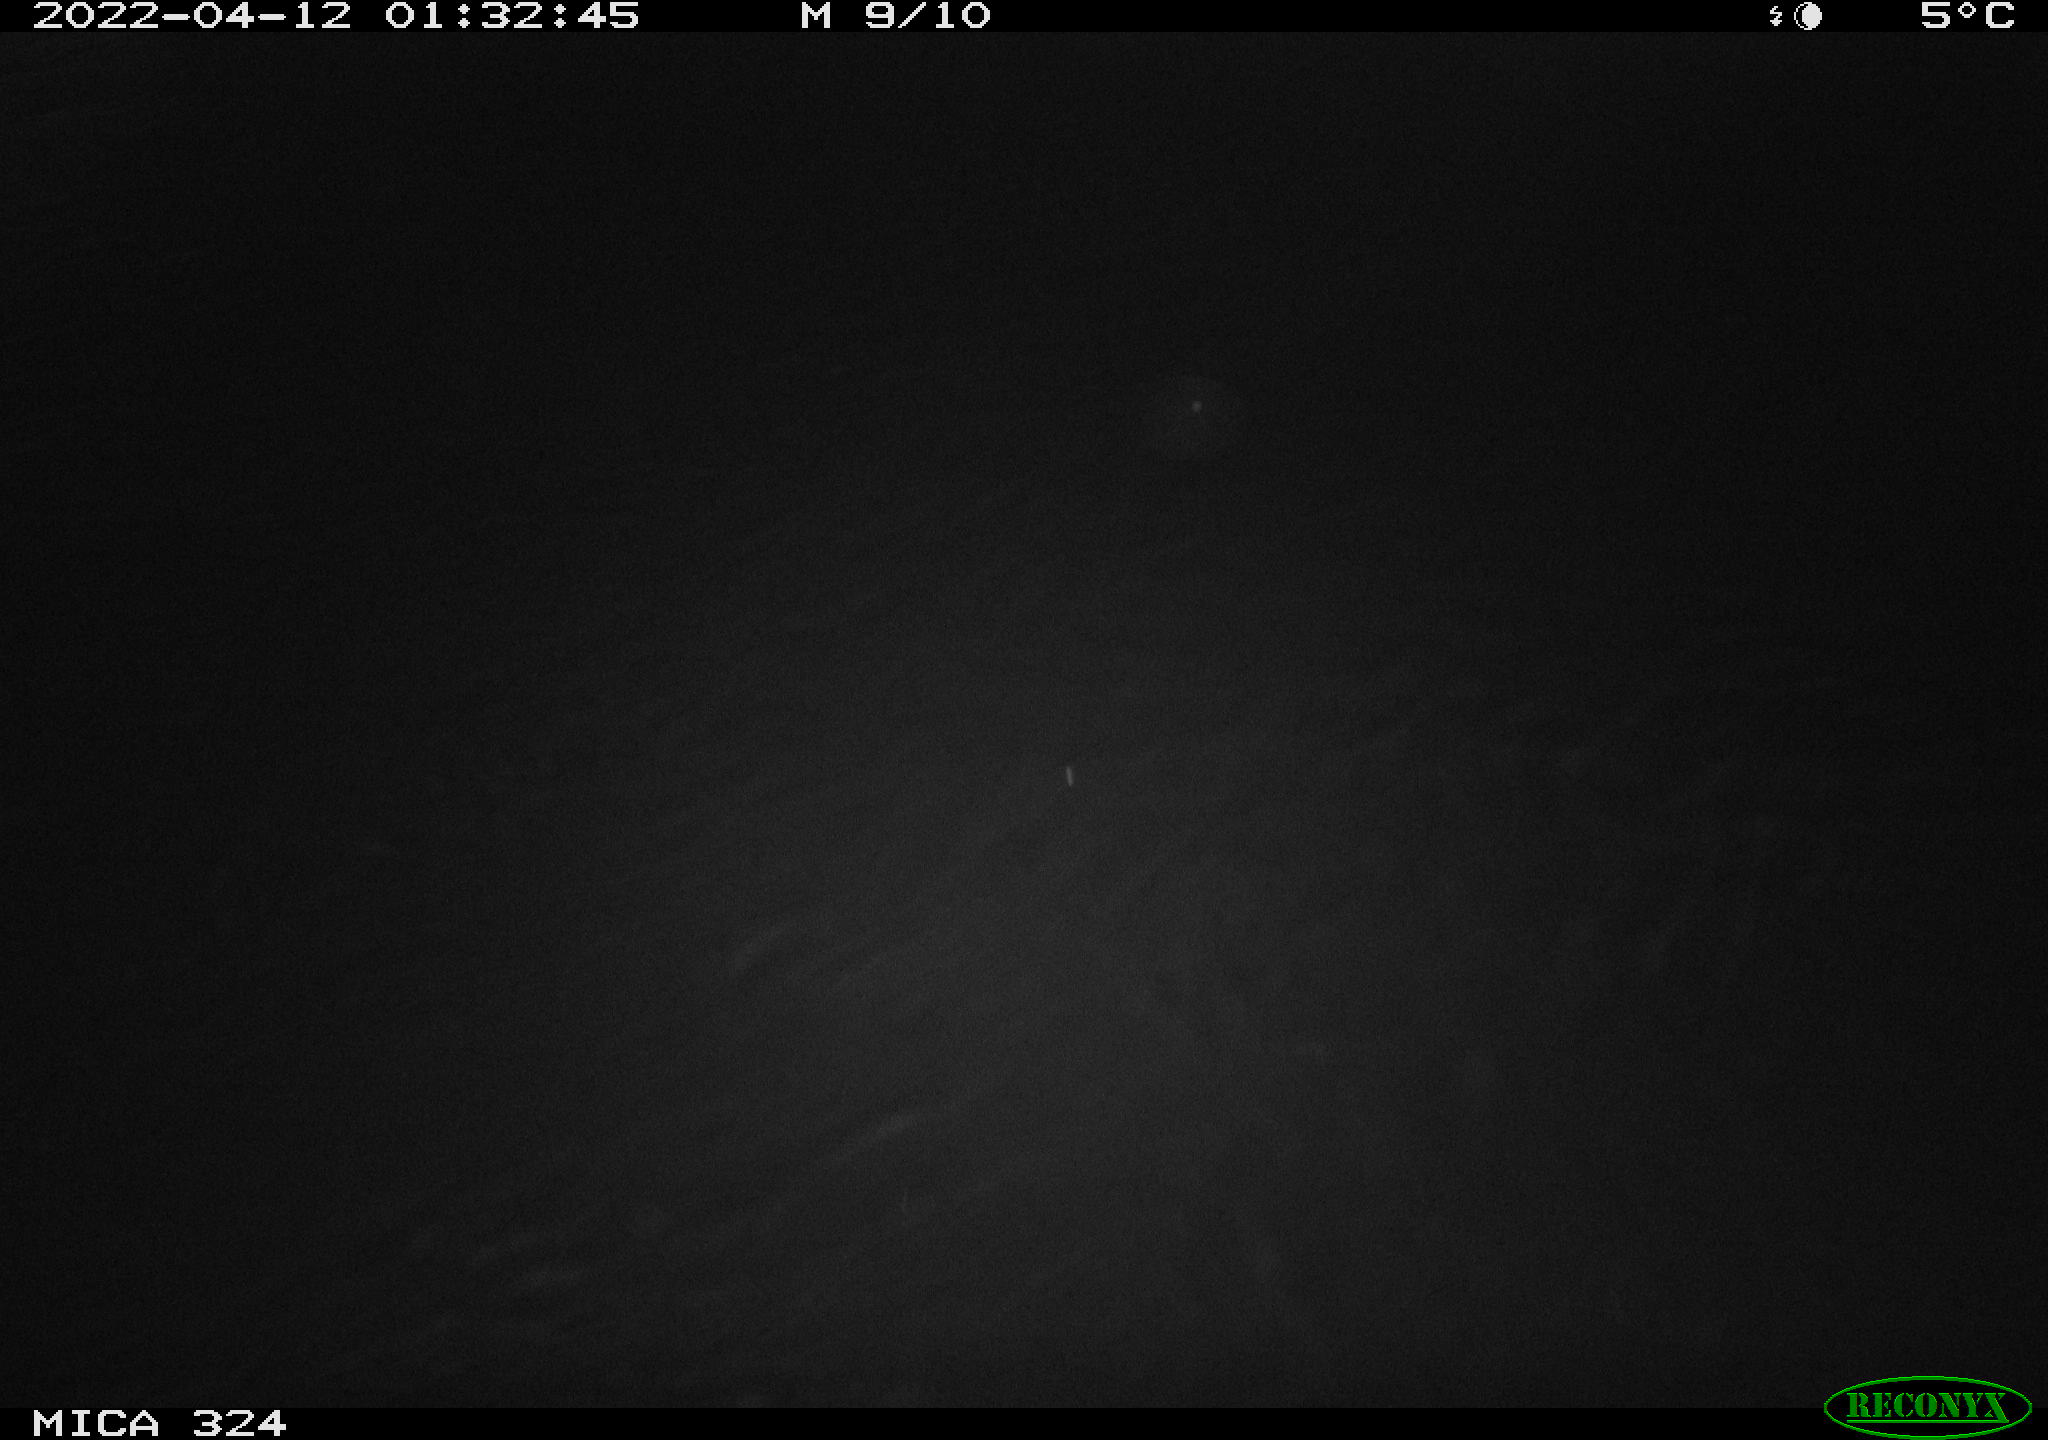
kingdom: Animalia
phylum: Chordata
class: Mammalia
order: Rodentia
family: Cricetidae
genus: Ondatra
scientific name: Ondatra zibethicus
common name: Muskrat
